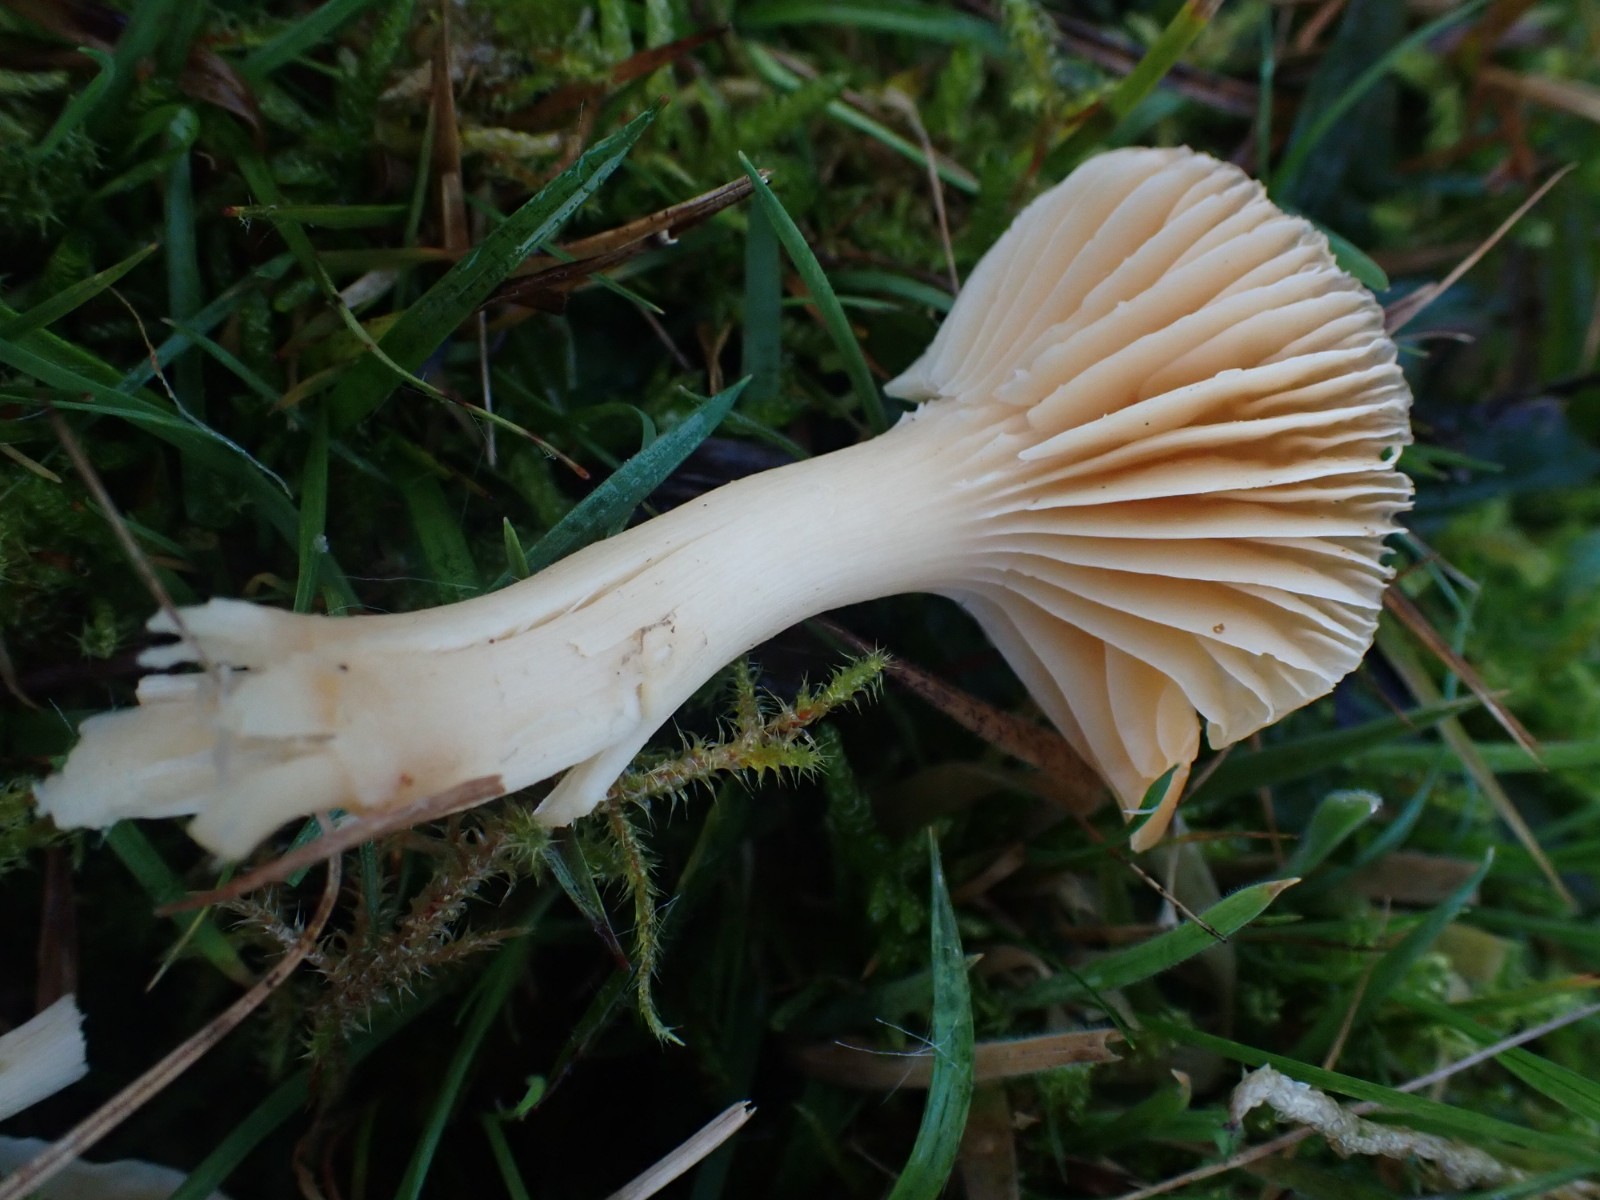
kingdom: Fungi
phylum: Basidiomycota
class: Agaricomycetes
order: Agaricales
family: Hygrophoraceae
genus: Cuphophyllus
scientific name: Cuphophyllus pratensis
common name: eng-vokshat
